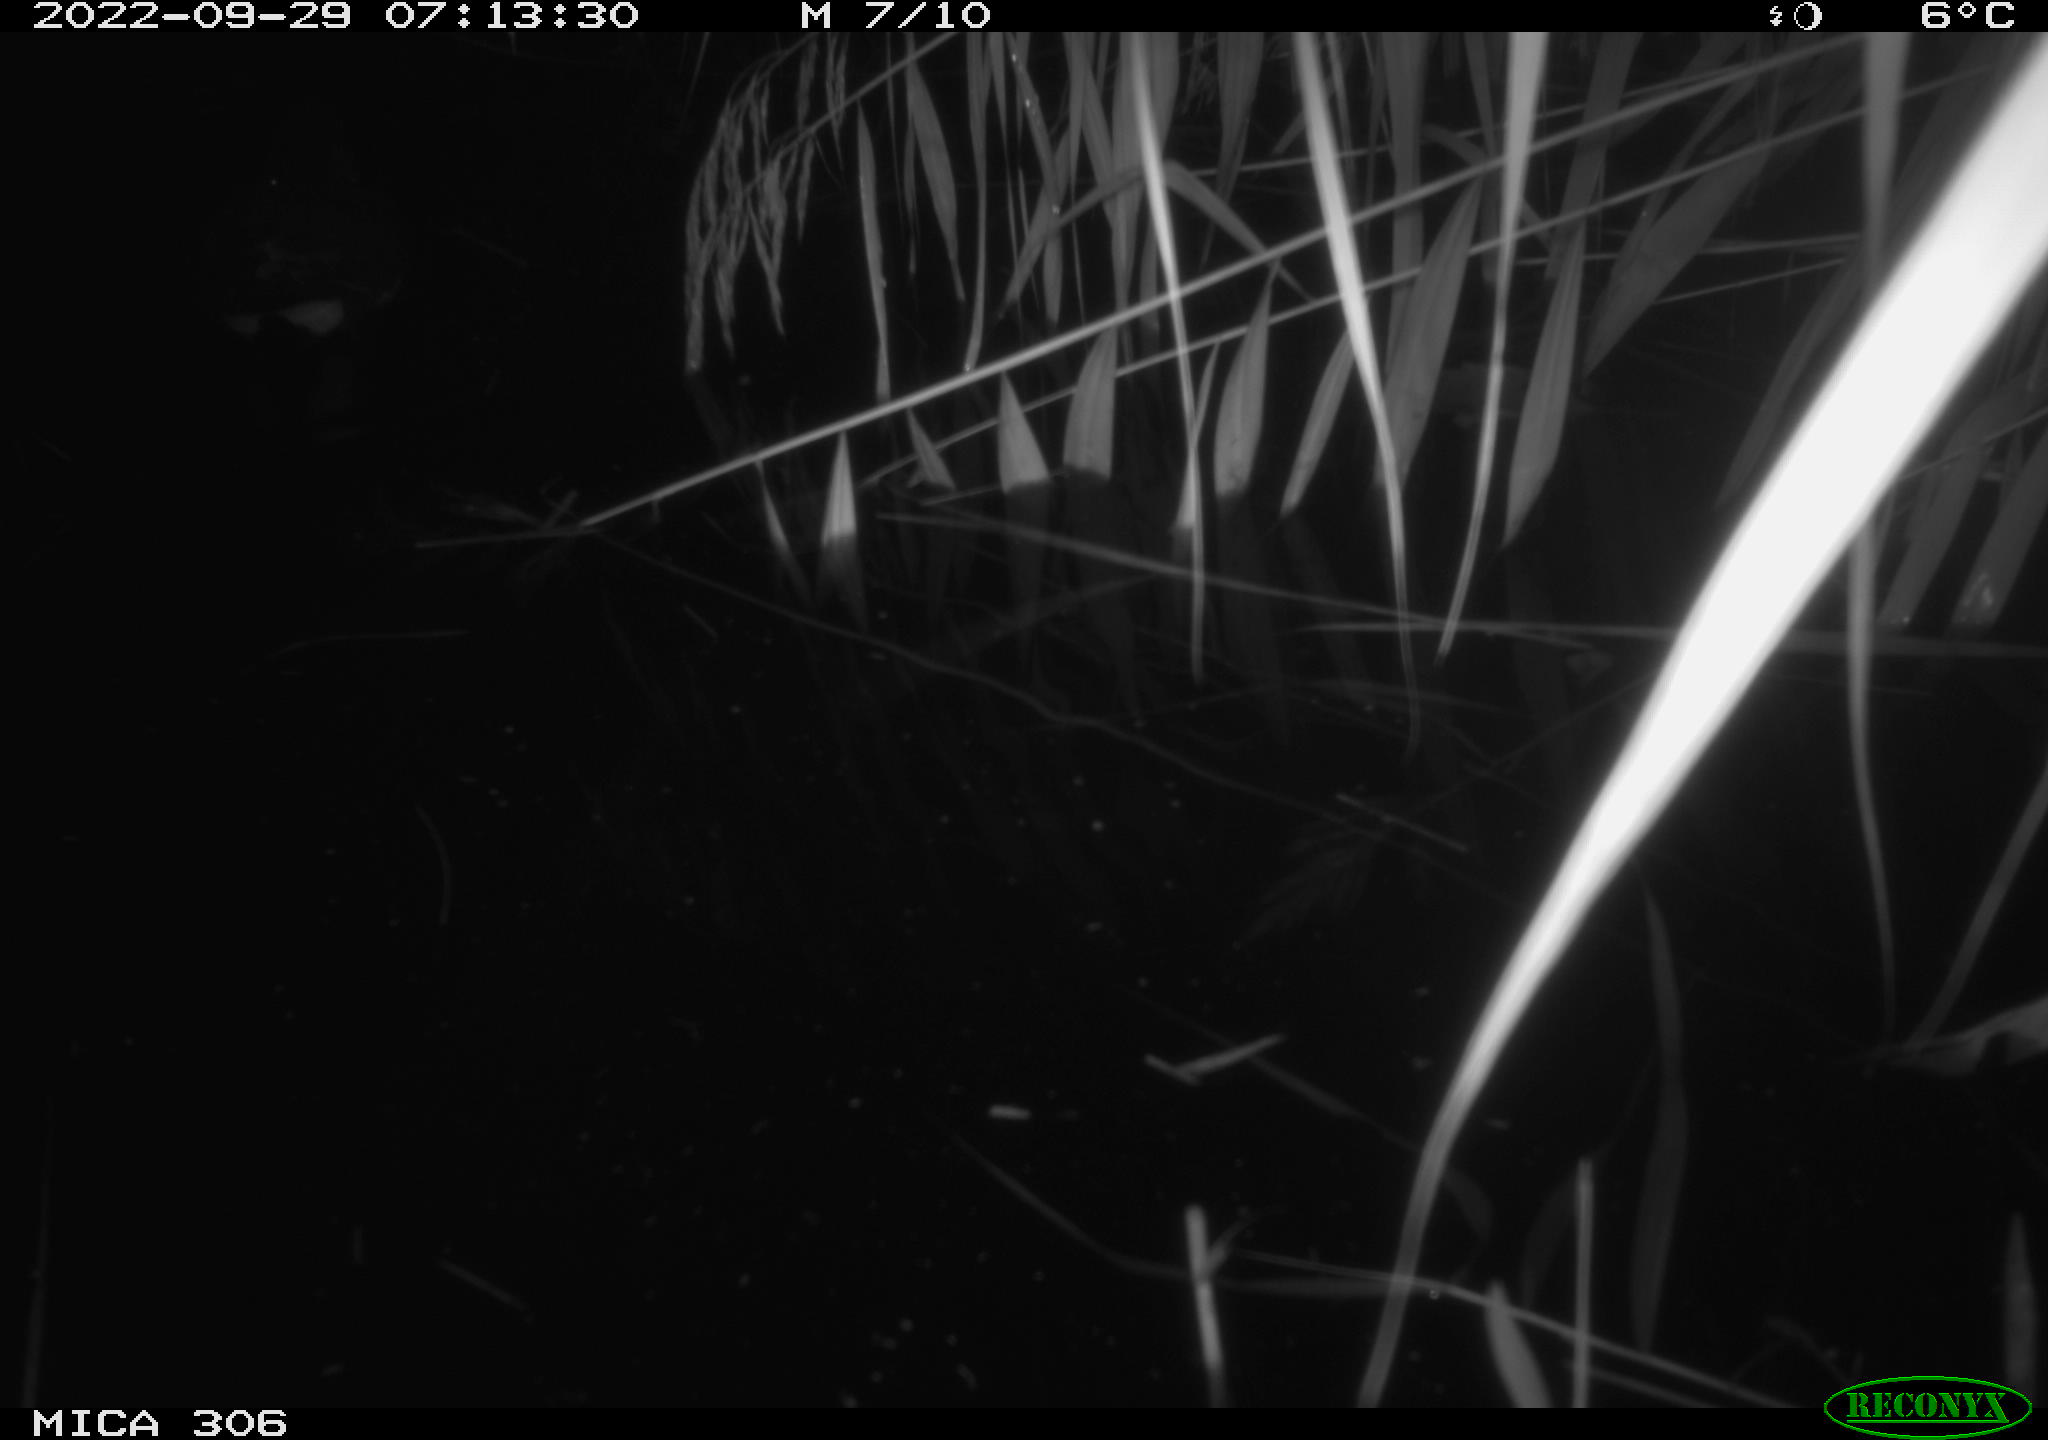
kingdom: Animalia
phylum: Chordata
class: Aves
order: Gruiformes
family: Rallidae
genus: Gallinula
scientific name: Gallinula chloropus
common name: Common moorhen
